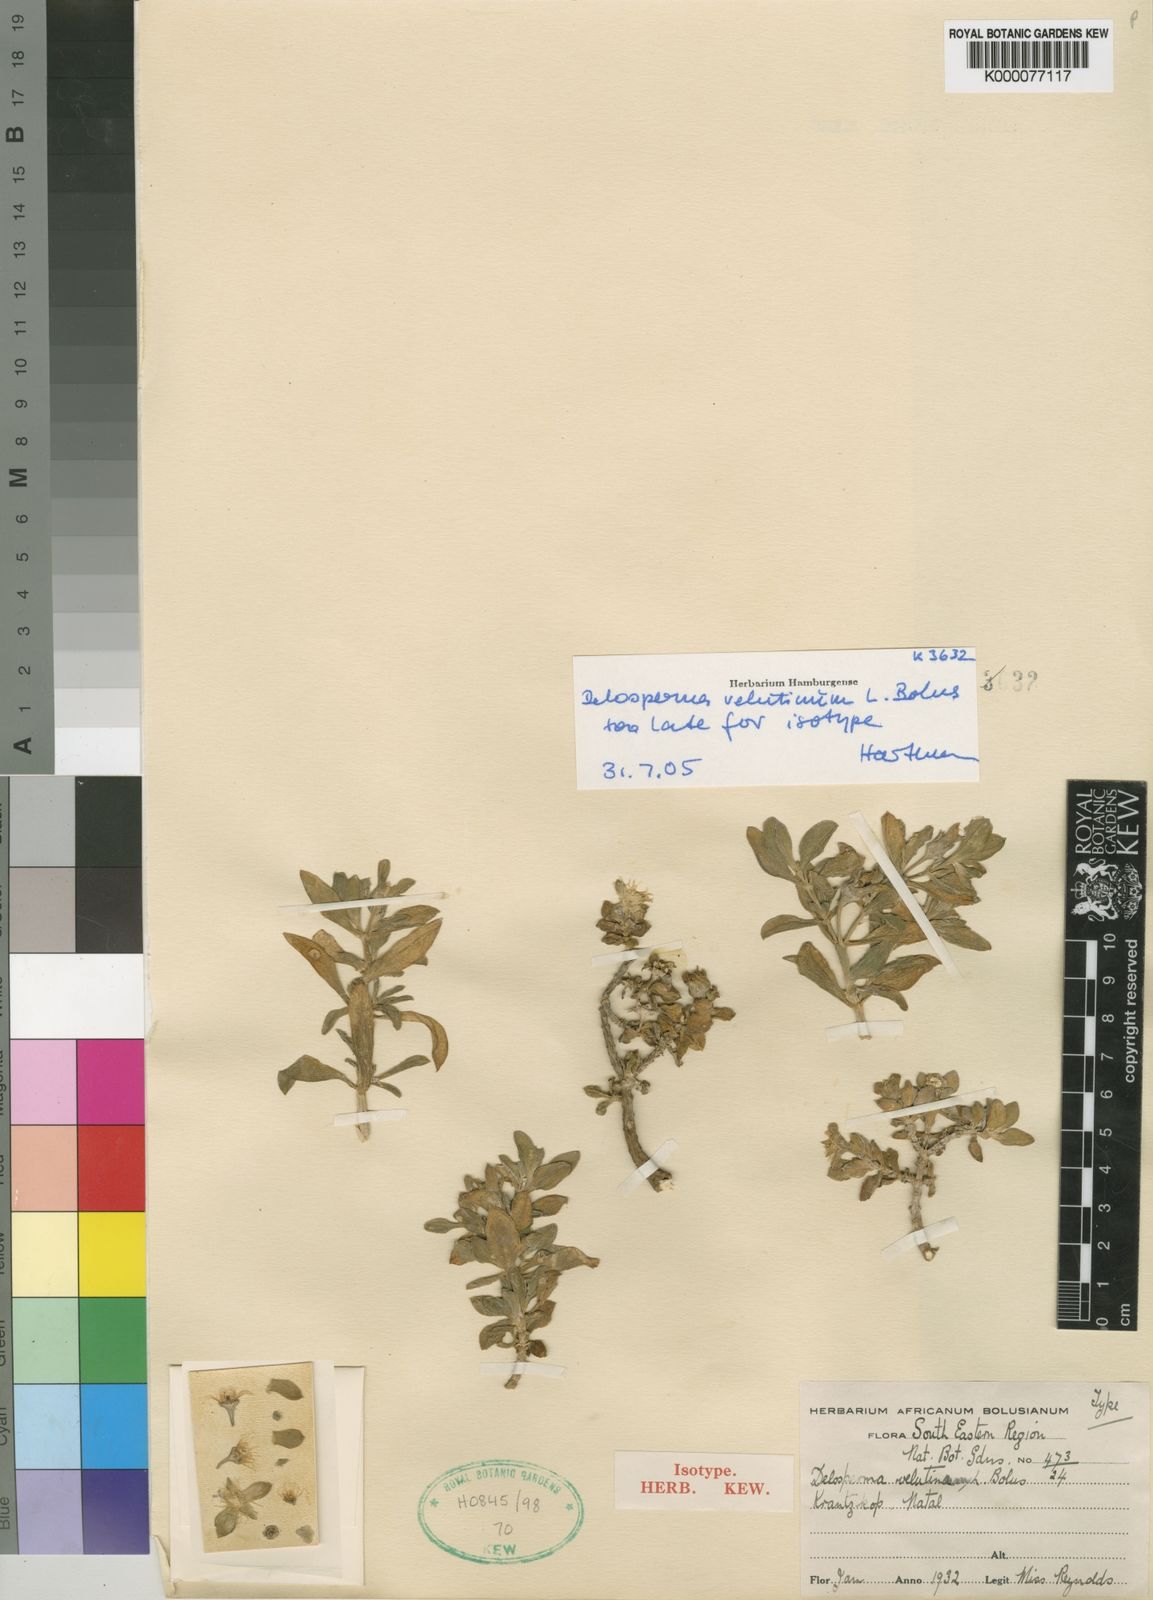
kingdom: Plantae
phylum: Tracheophyta
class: Magnoliopsida
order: Caryophyllales
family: Aizoaceae
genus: Delosperma
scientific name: Delosperma velutinum
